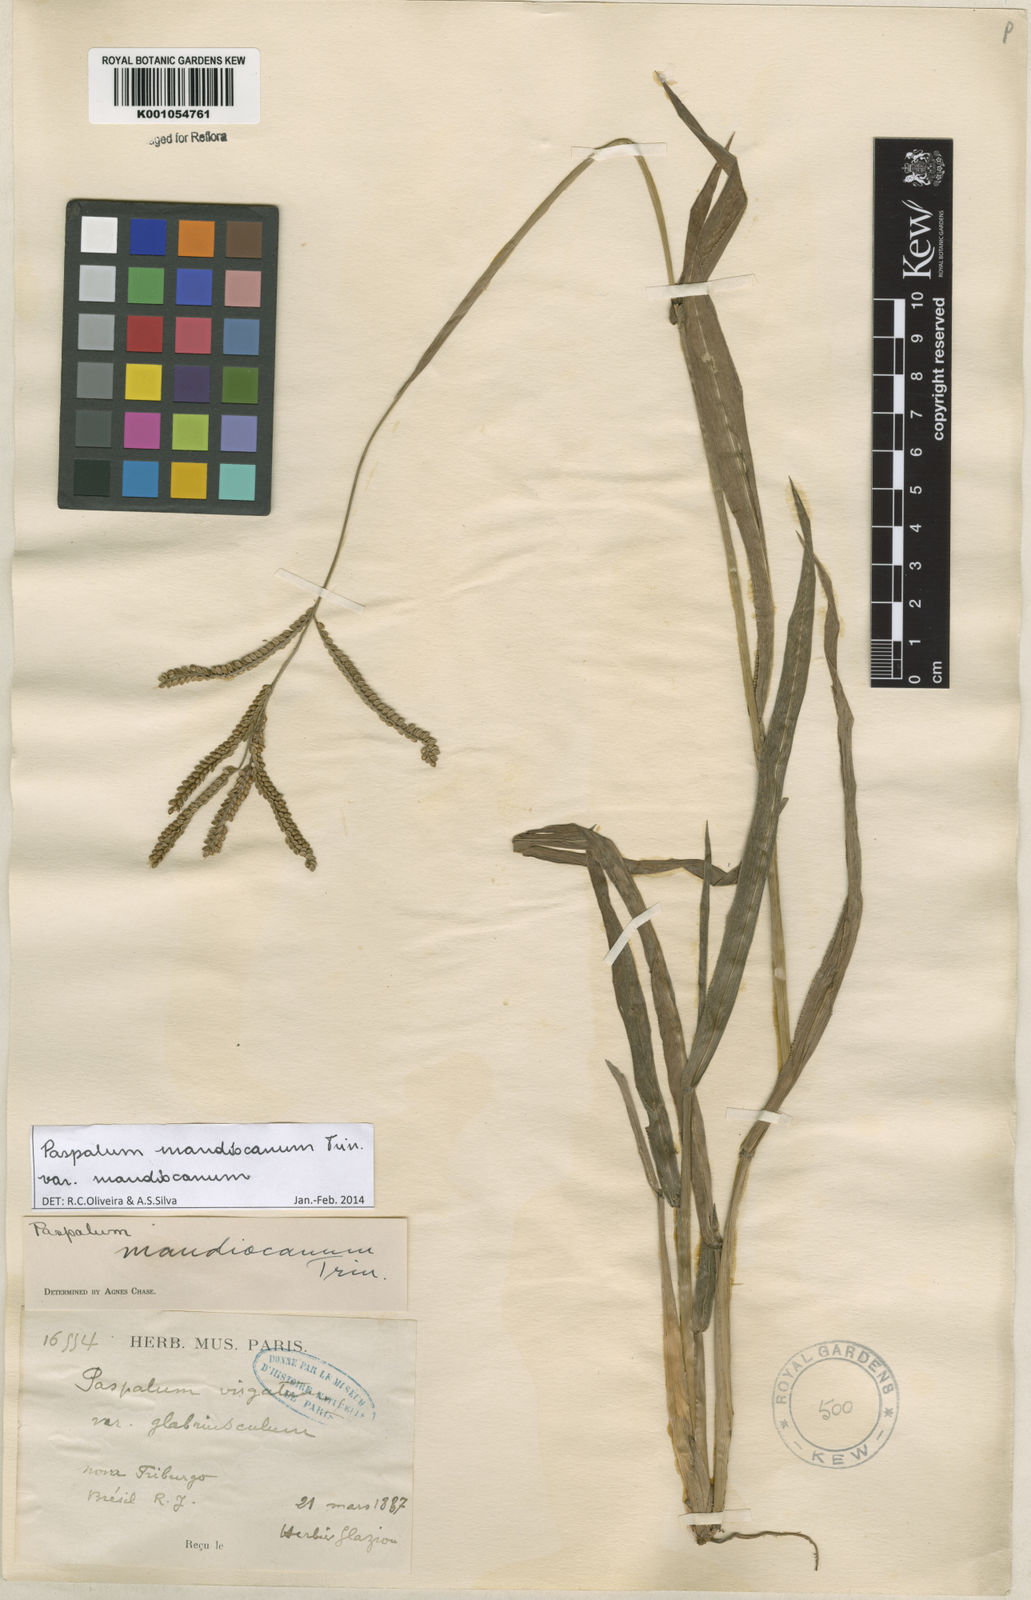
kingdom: Plantae
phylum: Tracheophyta
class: Liliopsida
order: Poales
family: Poaceae
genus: Paspalum
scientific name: Paspalum mandiocanum
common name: Paspalum
